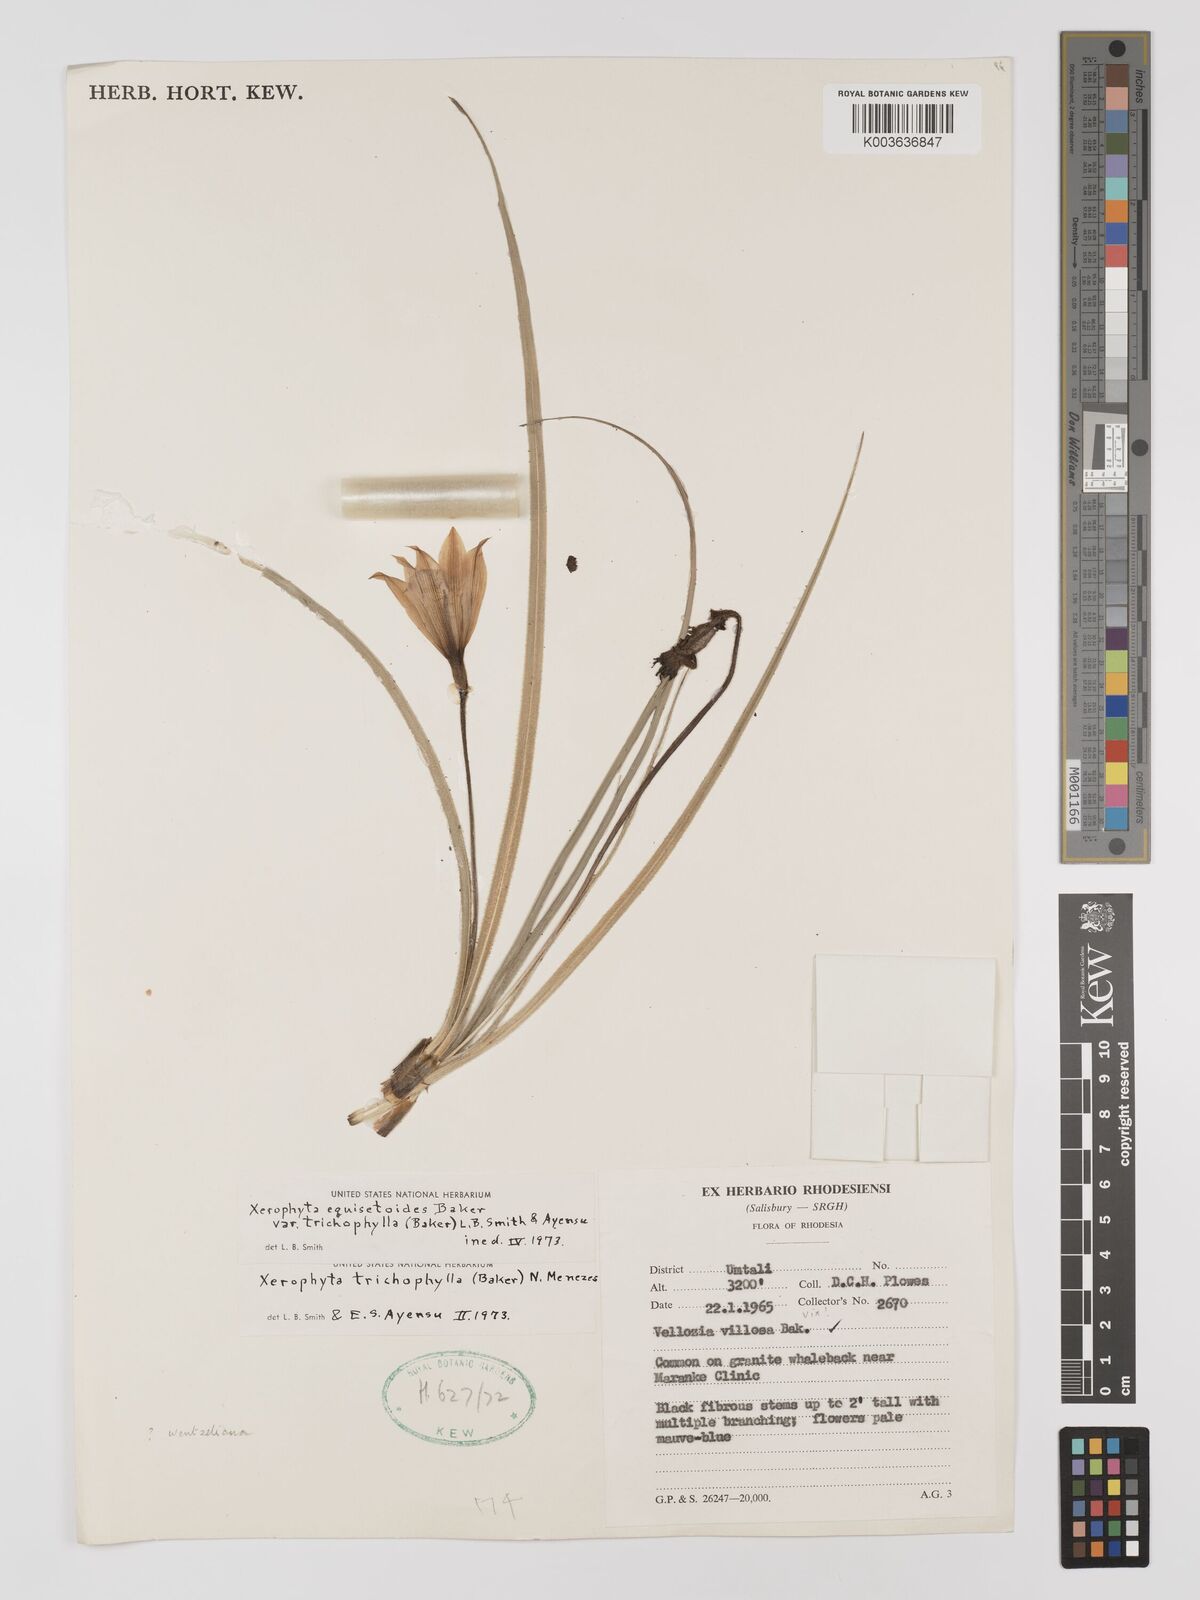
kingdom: Plantae
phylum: Tracheophyta
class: Liliopsida
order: Pandanales
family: Velloziaceae
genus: Xerophyta
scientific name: Xerophyta trichophylla
